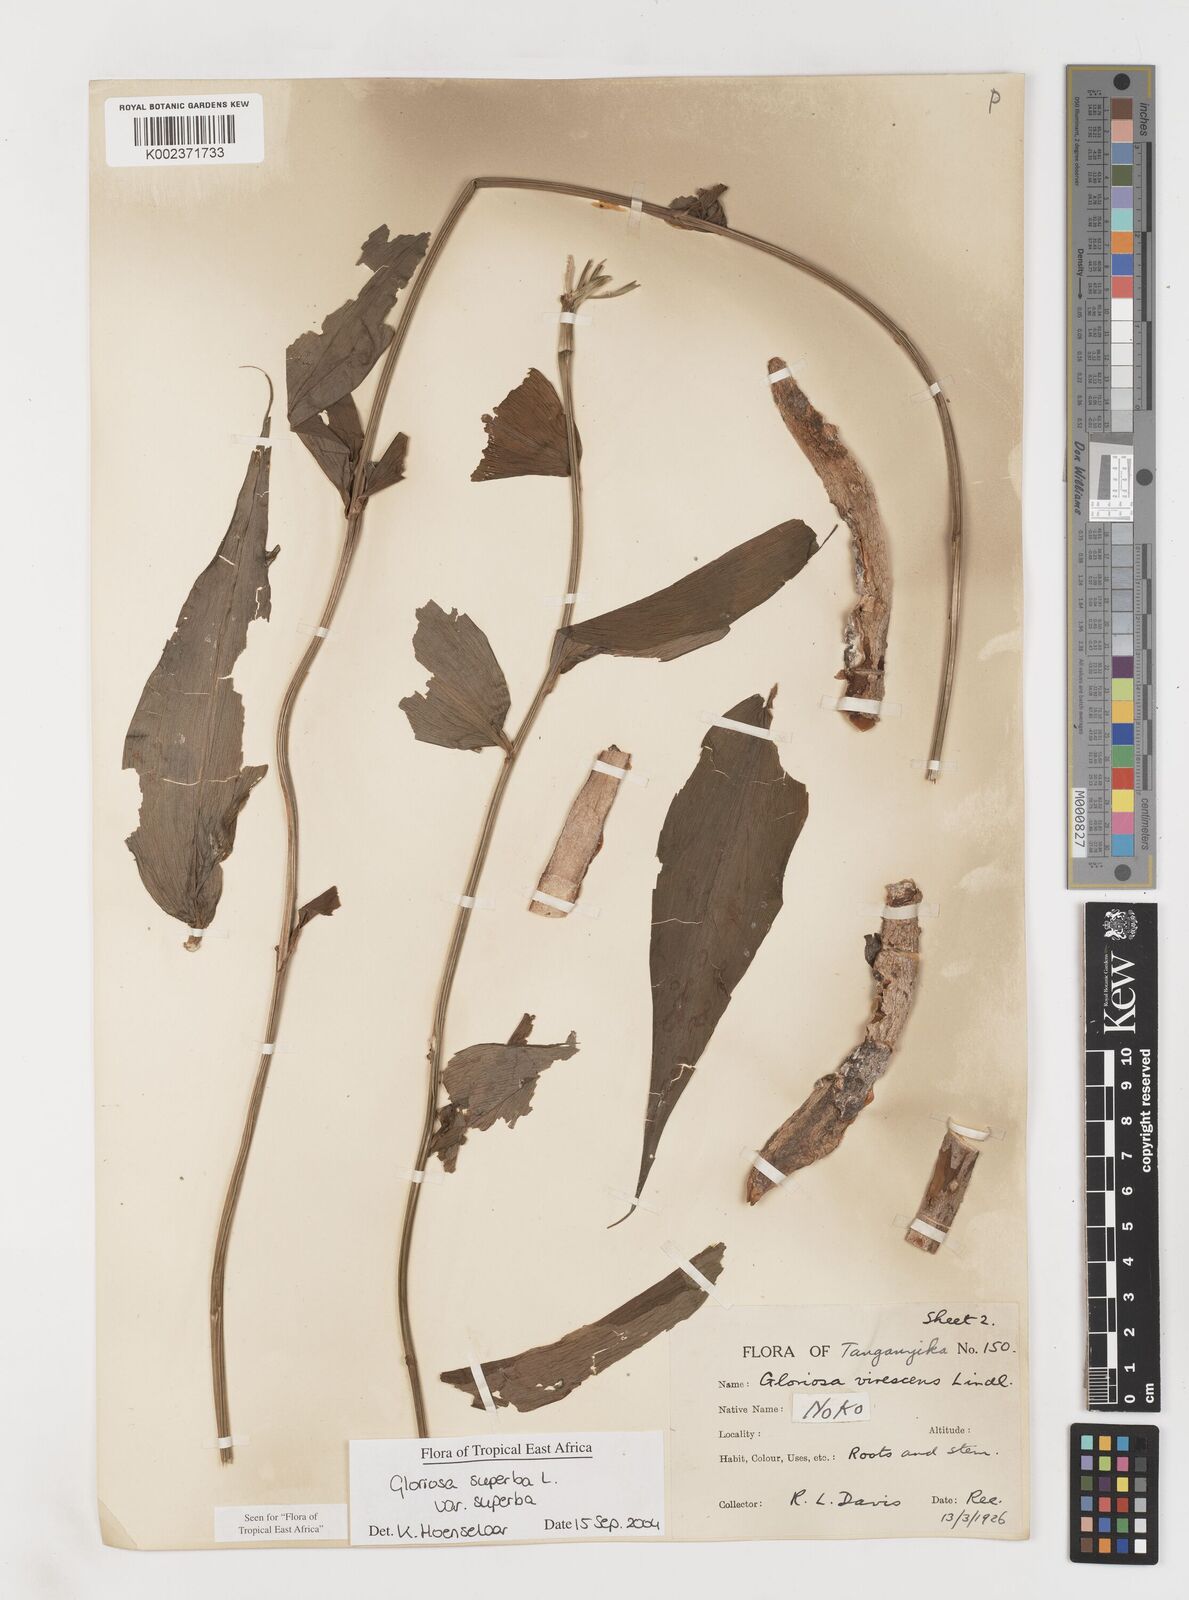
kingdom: Plantae
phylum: Tracheophyta
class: Liliopsida
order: Liliales
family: Colchicaceae
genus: Gloriosa
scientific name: Gloriosa simplex
